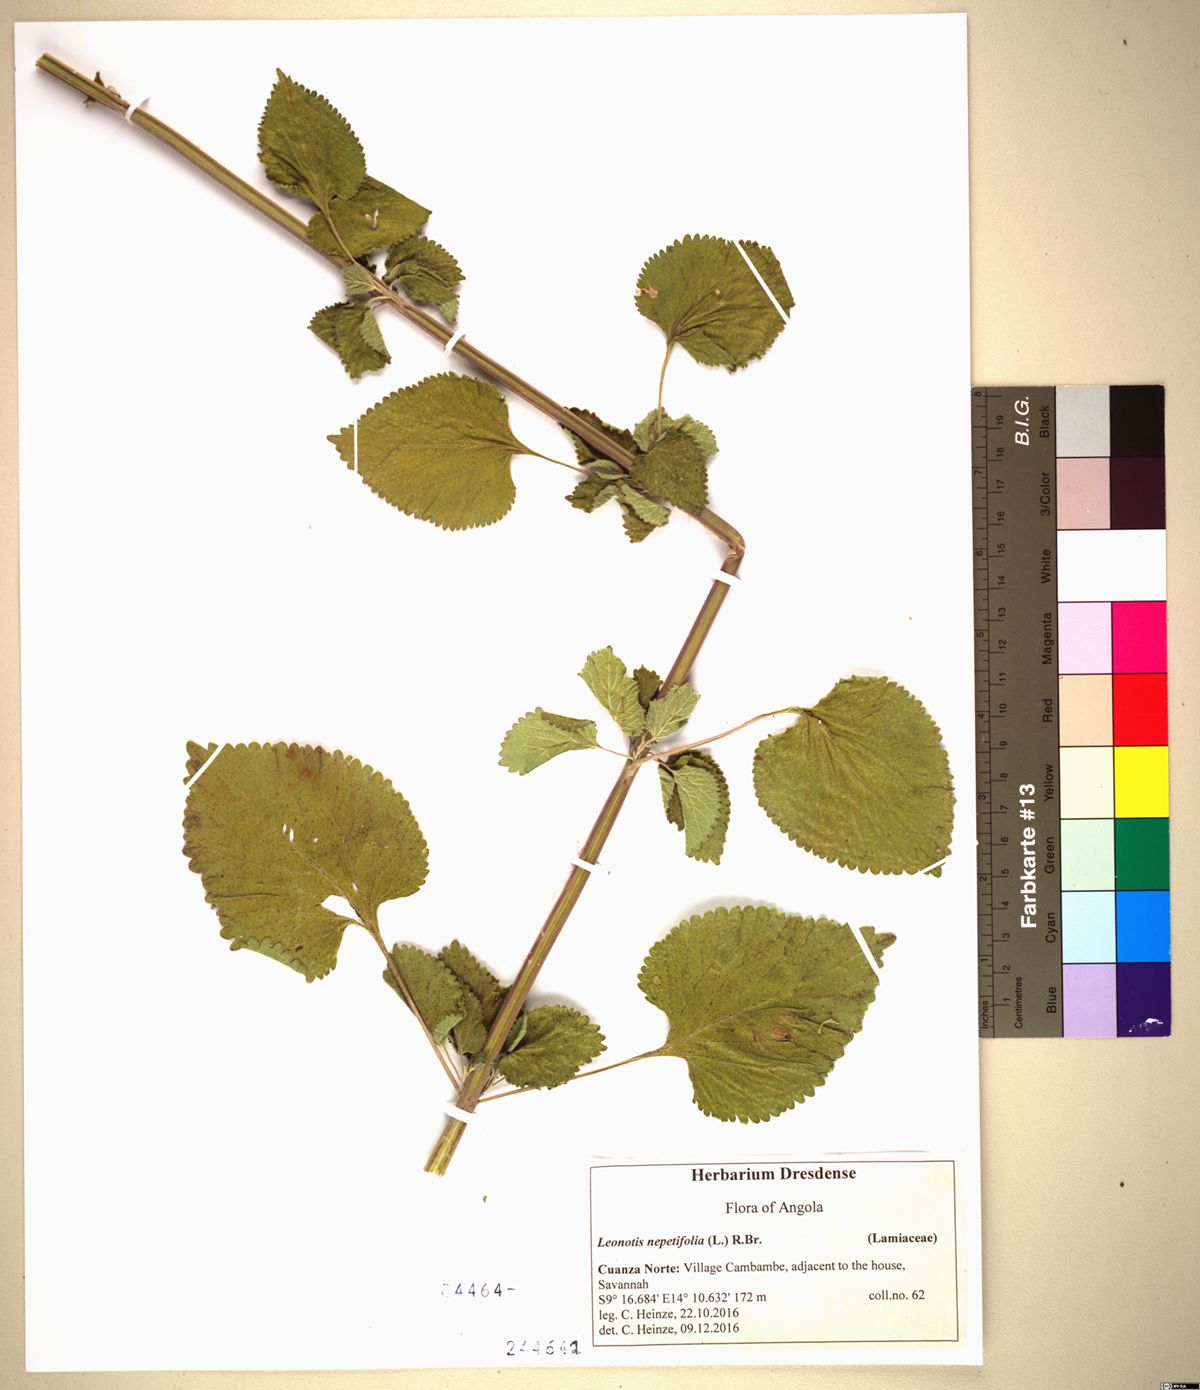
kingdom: Plantae
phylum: Tracheophyta
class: Magnoliopsida
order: Lamiales
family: Lamiaceae
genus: Leonotis
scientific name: Leonotis nepetifolia
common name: Christmas candlestick
